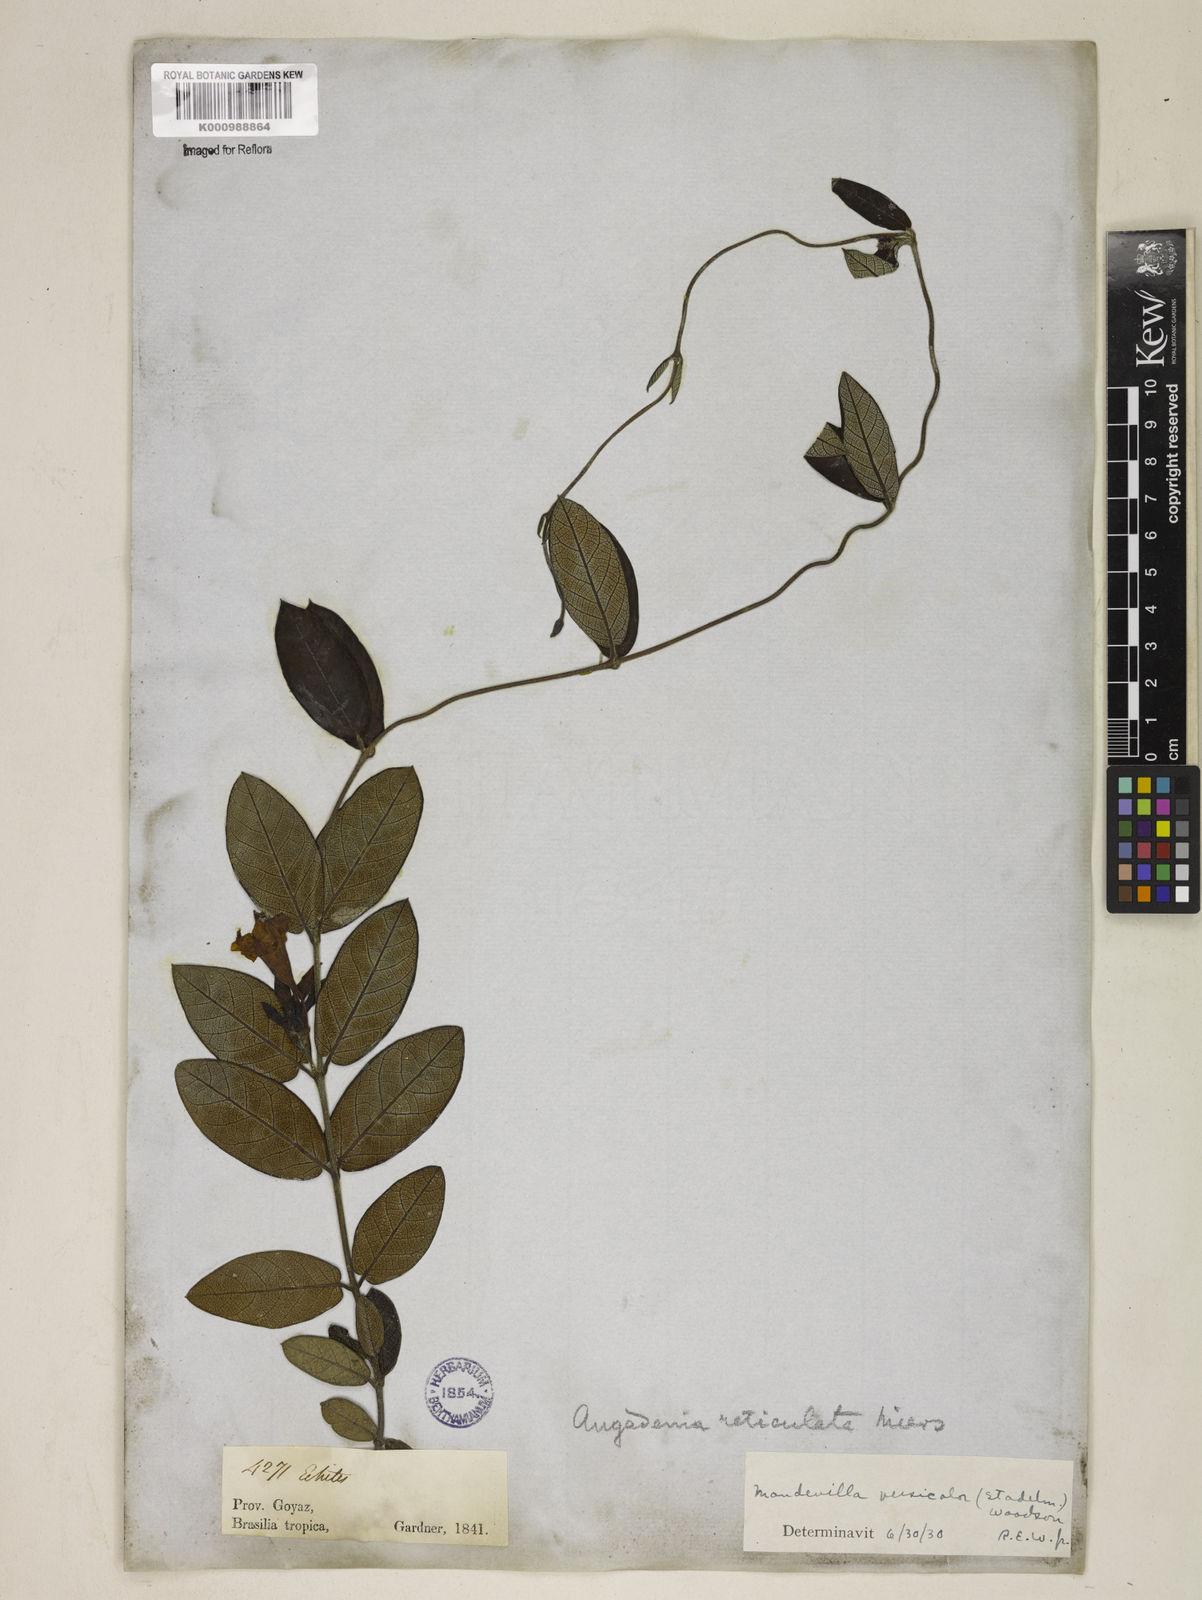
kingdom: Plantae
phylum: Tracheophyta
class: Magnoliopsida
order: Gentianales
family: Apocynaceae
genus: Mandevilla
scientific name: Mandevilla scabra
